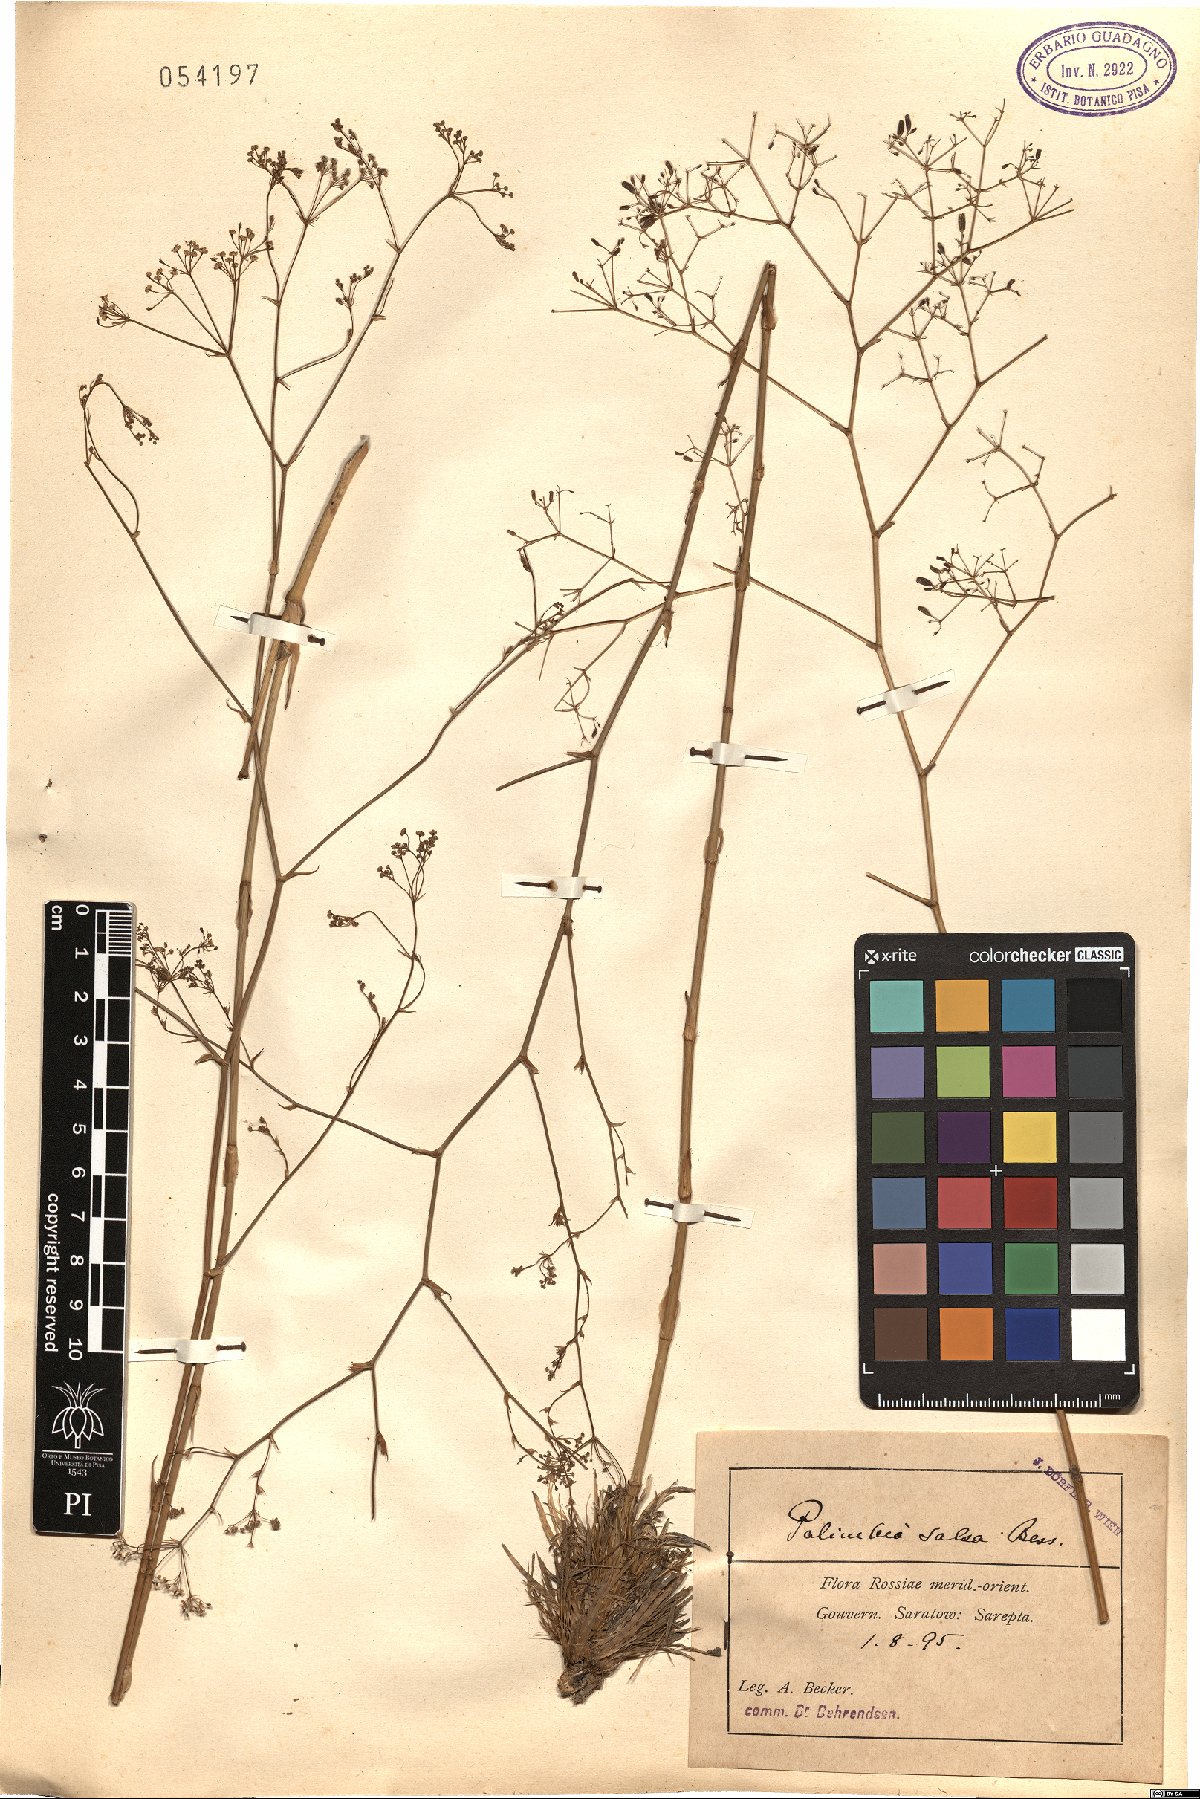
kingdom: Plantae
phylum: Tracheophyta
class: Magnoliopsida
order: Apiales
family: Apiaceae
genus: Palimbia
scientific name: Palimbia rediviva
